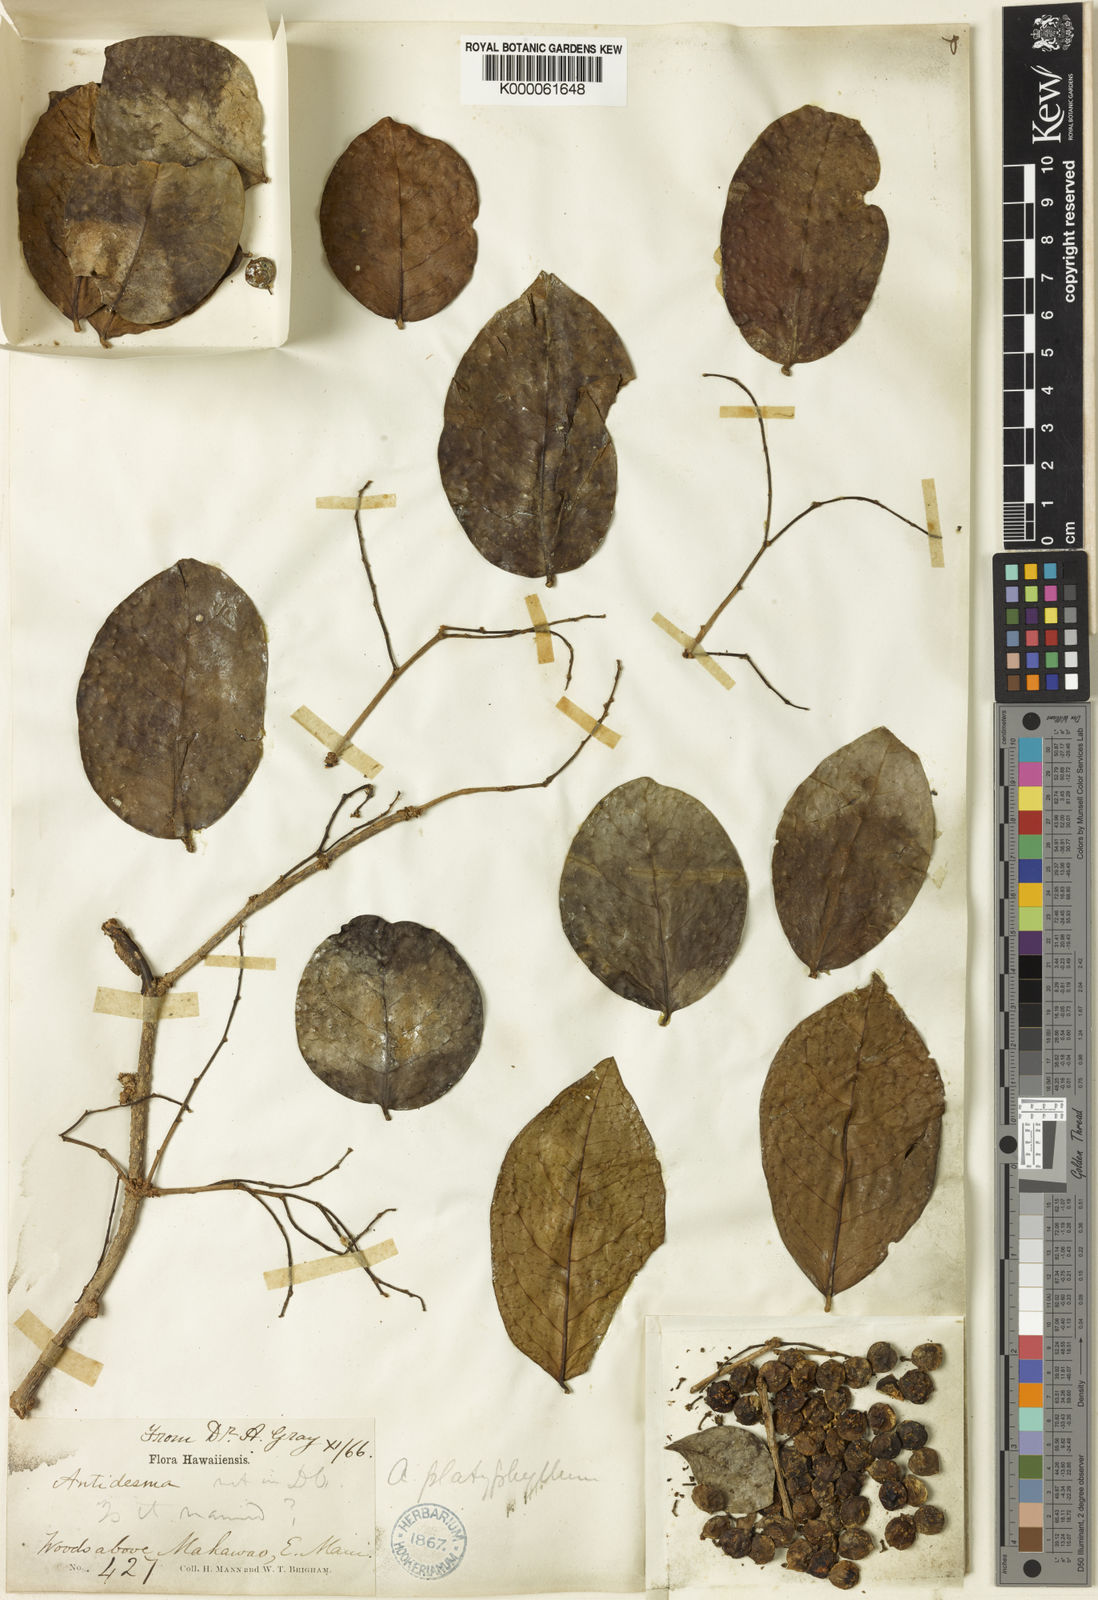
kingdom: Plantae
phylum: Tracheophyta
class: Magnoliopsida
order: Malpighiales
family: Phyllanthaceae
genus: Antidesma
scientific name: Antidesma platyphyllum
